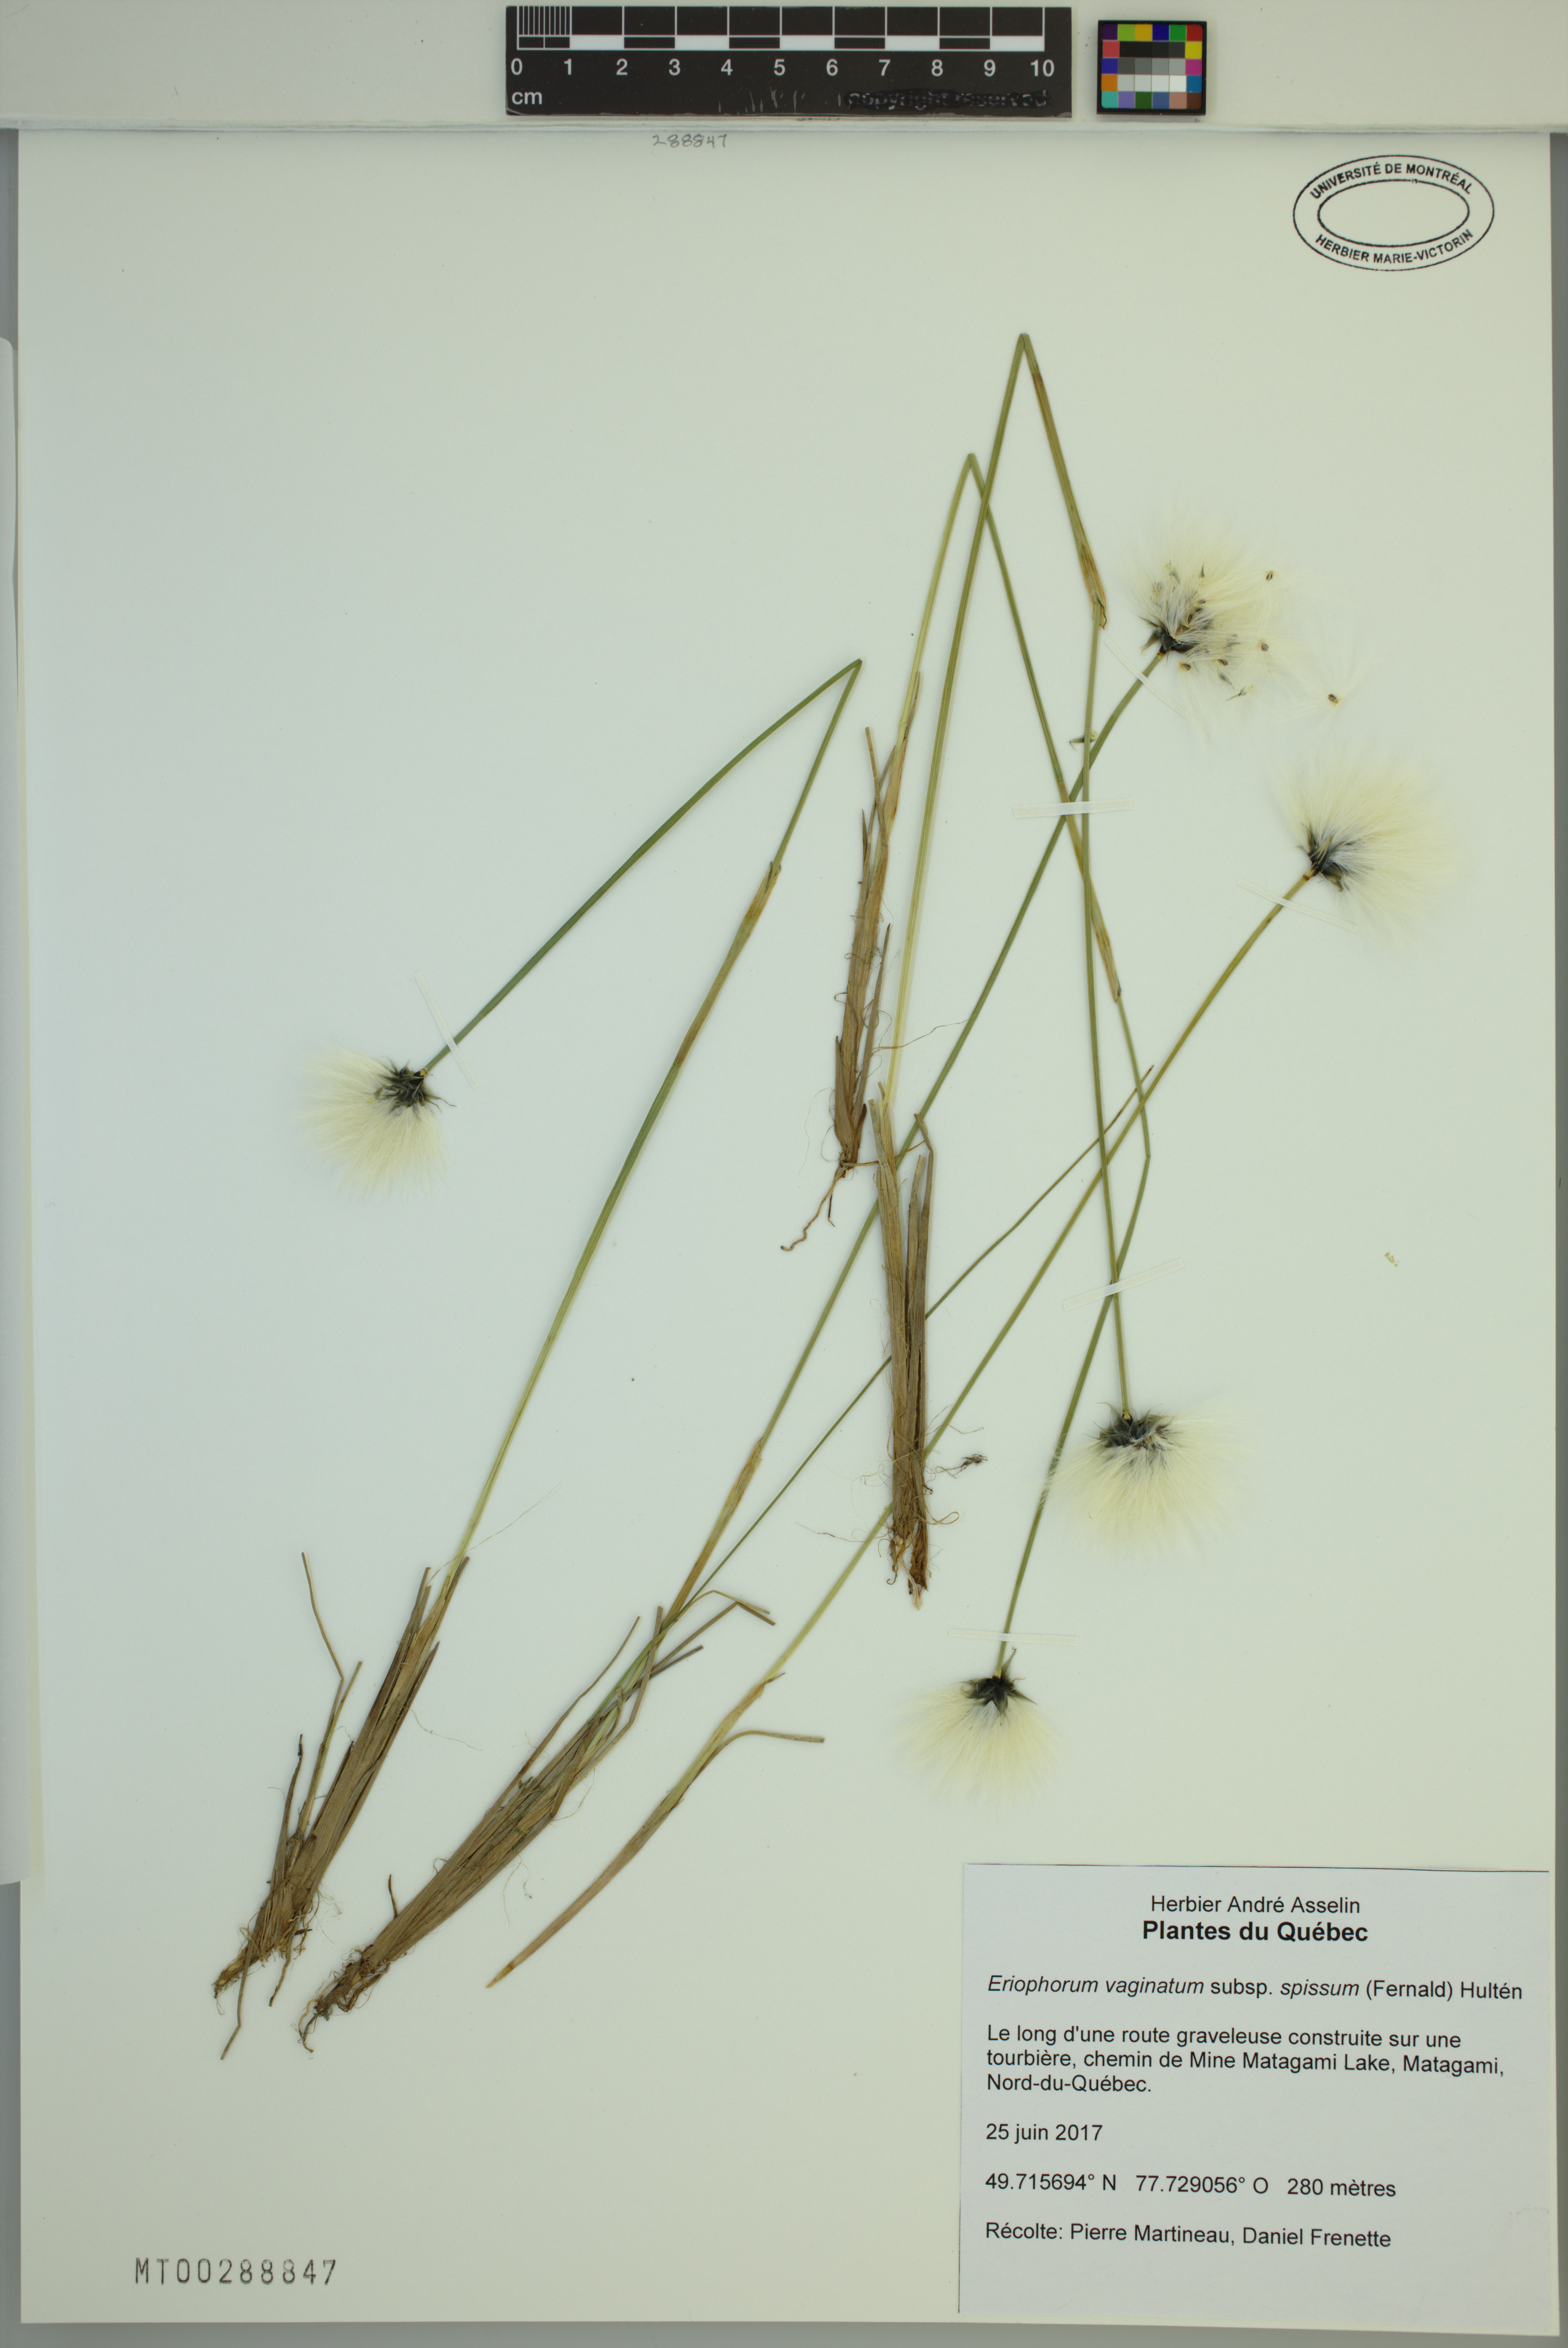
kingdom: Plantae
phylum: Tracheophyta
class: Liliopsida
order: Poales
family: Cyperaceae
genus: Eriophorum
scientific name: Eriophorum vaginatum
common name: Hare's-tail cottongrass
